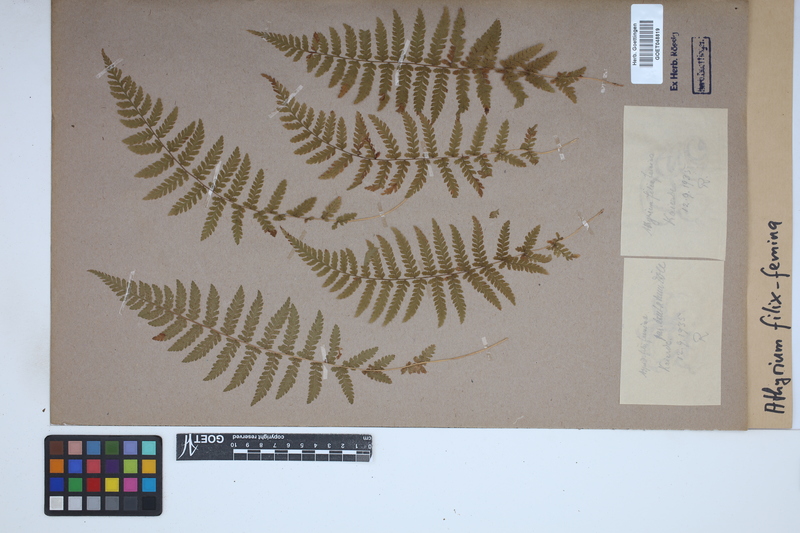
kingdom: Plantae
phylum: Tracheophyta
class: Polypodiopsida
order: Polypodiales
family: Athyriaceae
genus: Athyrium
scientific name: Athyrium filix-femina
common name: Lady fern
